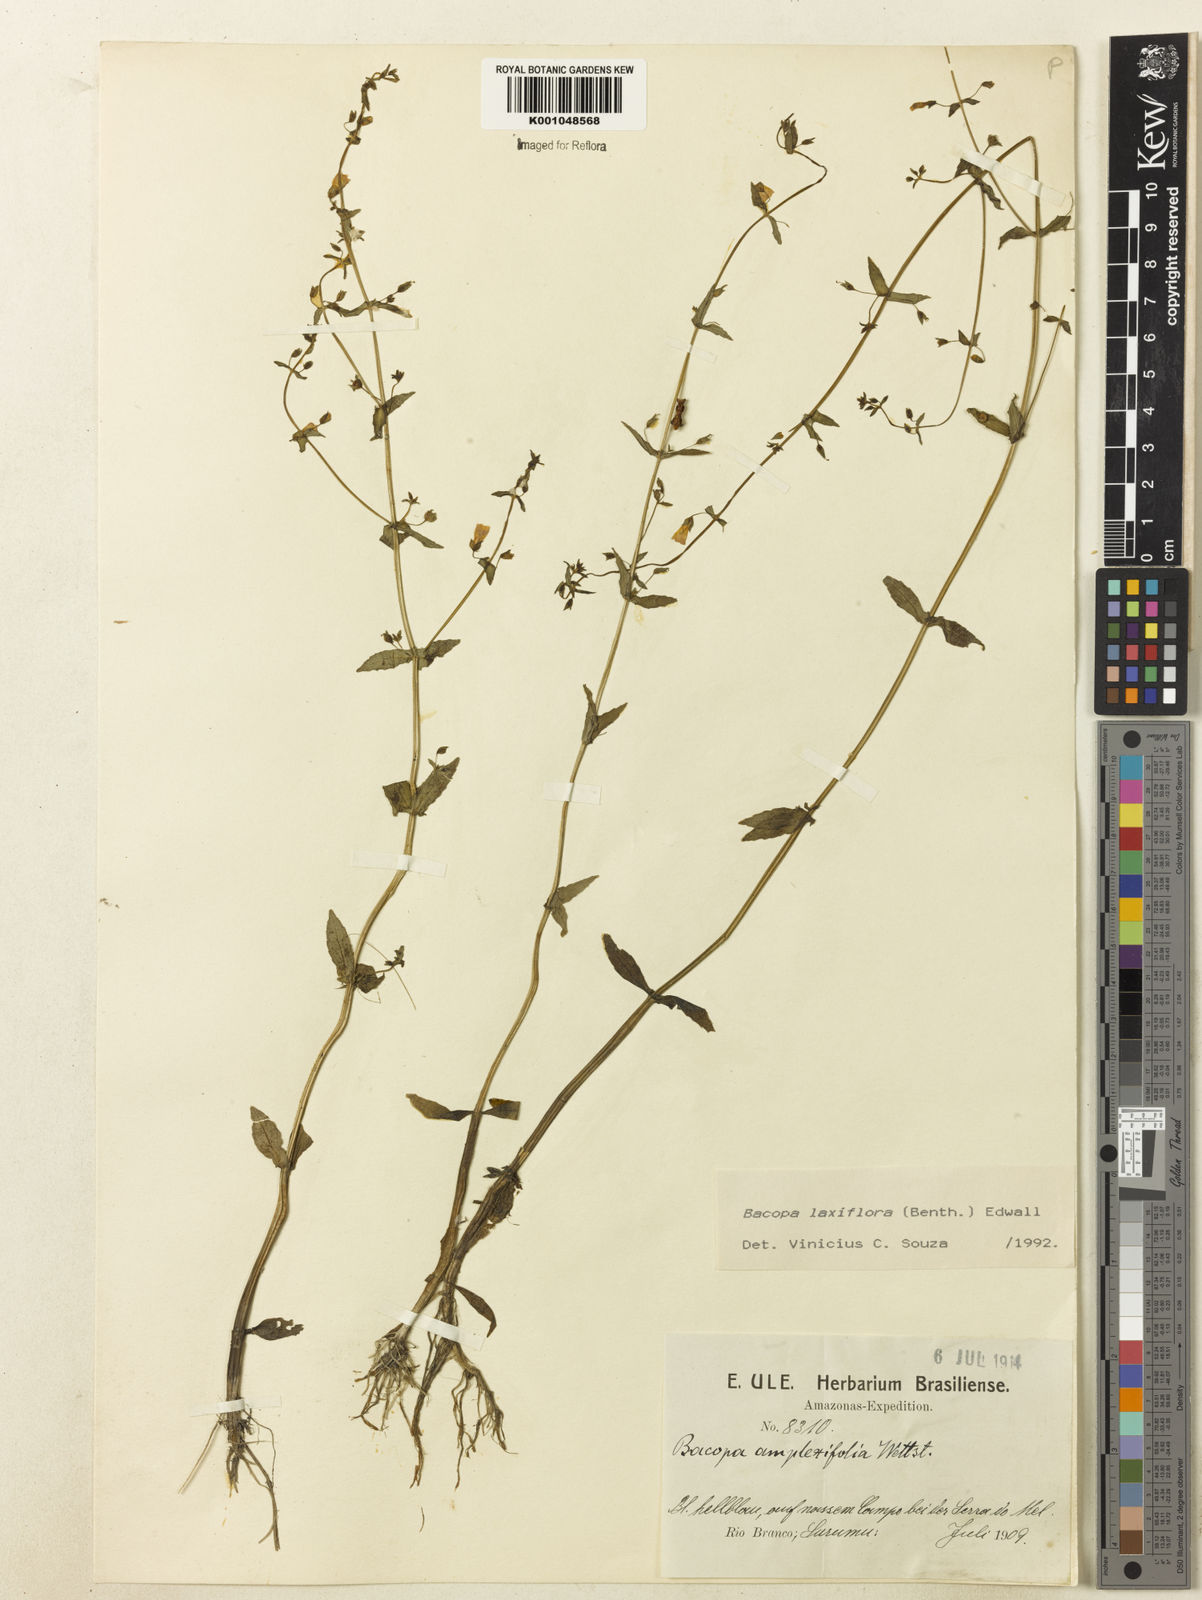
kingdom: Plantae
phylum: Tracheophyta
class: Magnoliopsida
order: Lamiales
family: Plantaginaceae
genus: Bacopa
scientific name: Bacopa laxiflora
